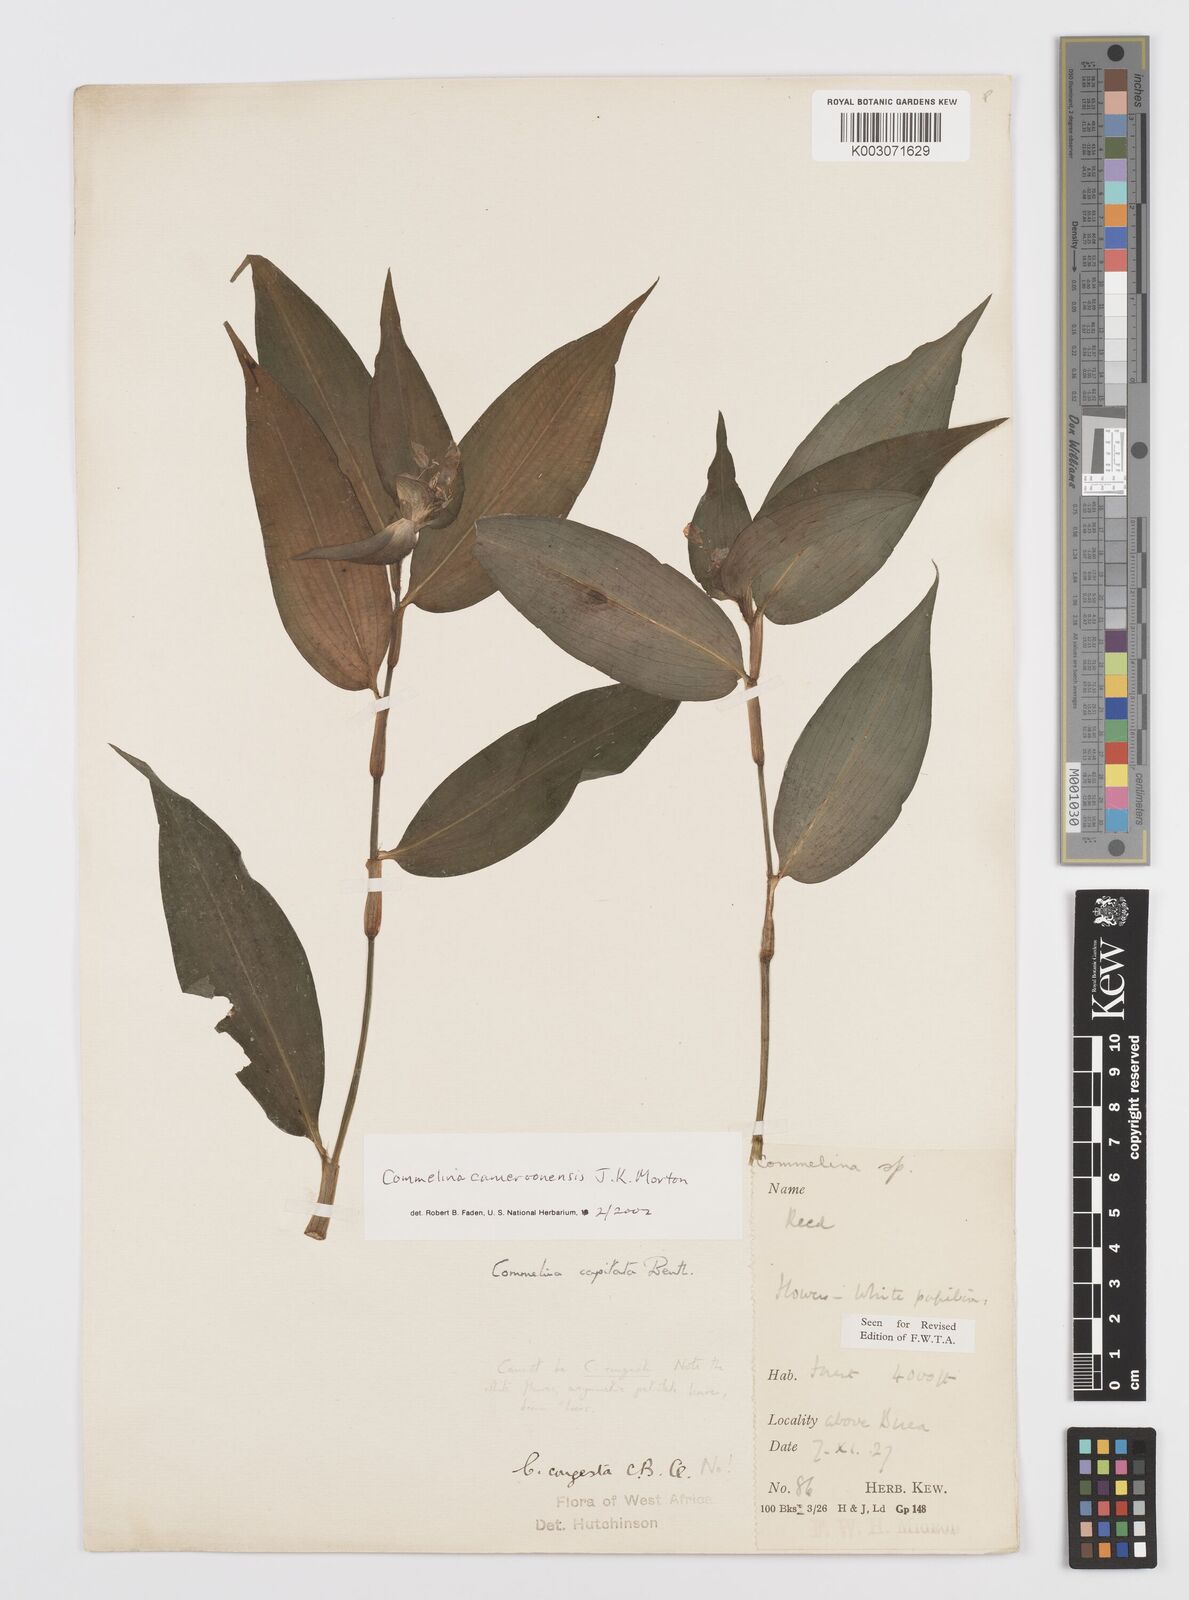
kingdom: Plantae
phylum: Tracheophyta
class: Liliopsida
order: Commelinales
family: Commelinaceae
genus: Commelina
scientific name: Commelina cameroonensis
